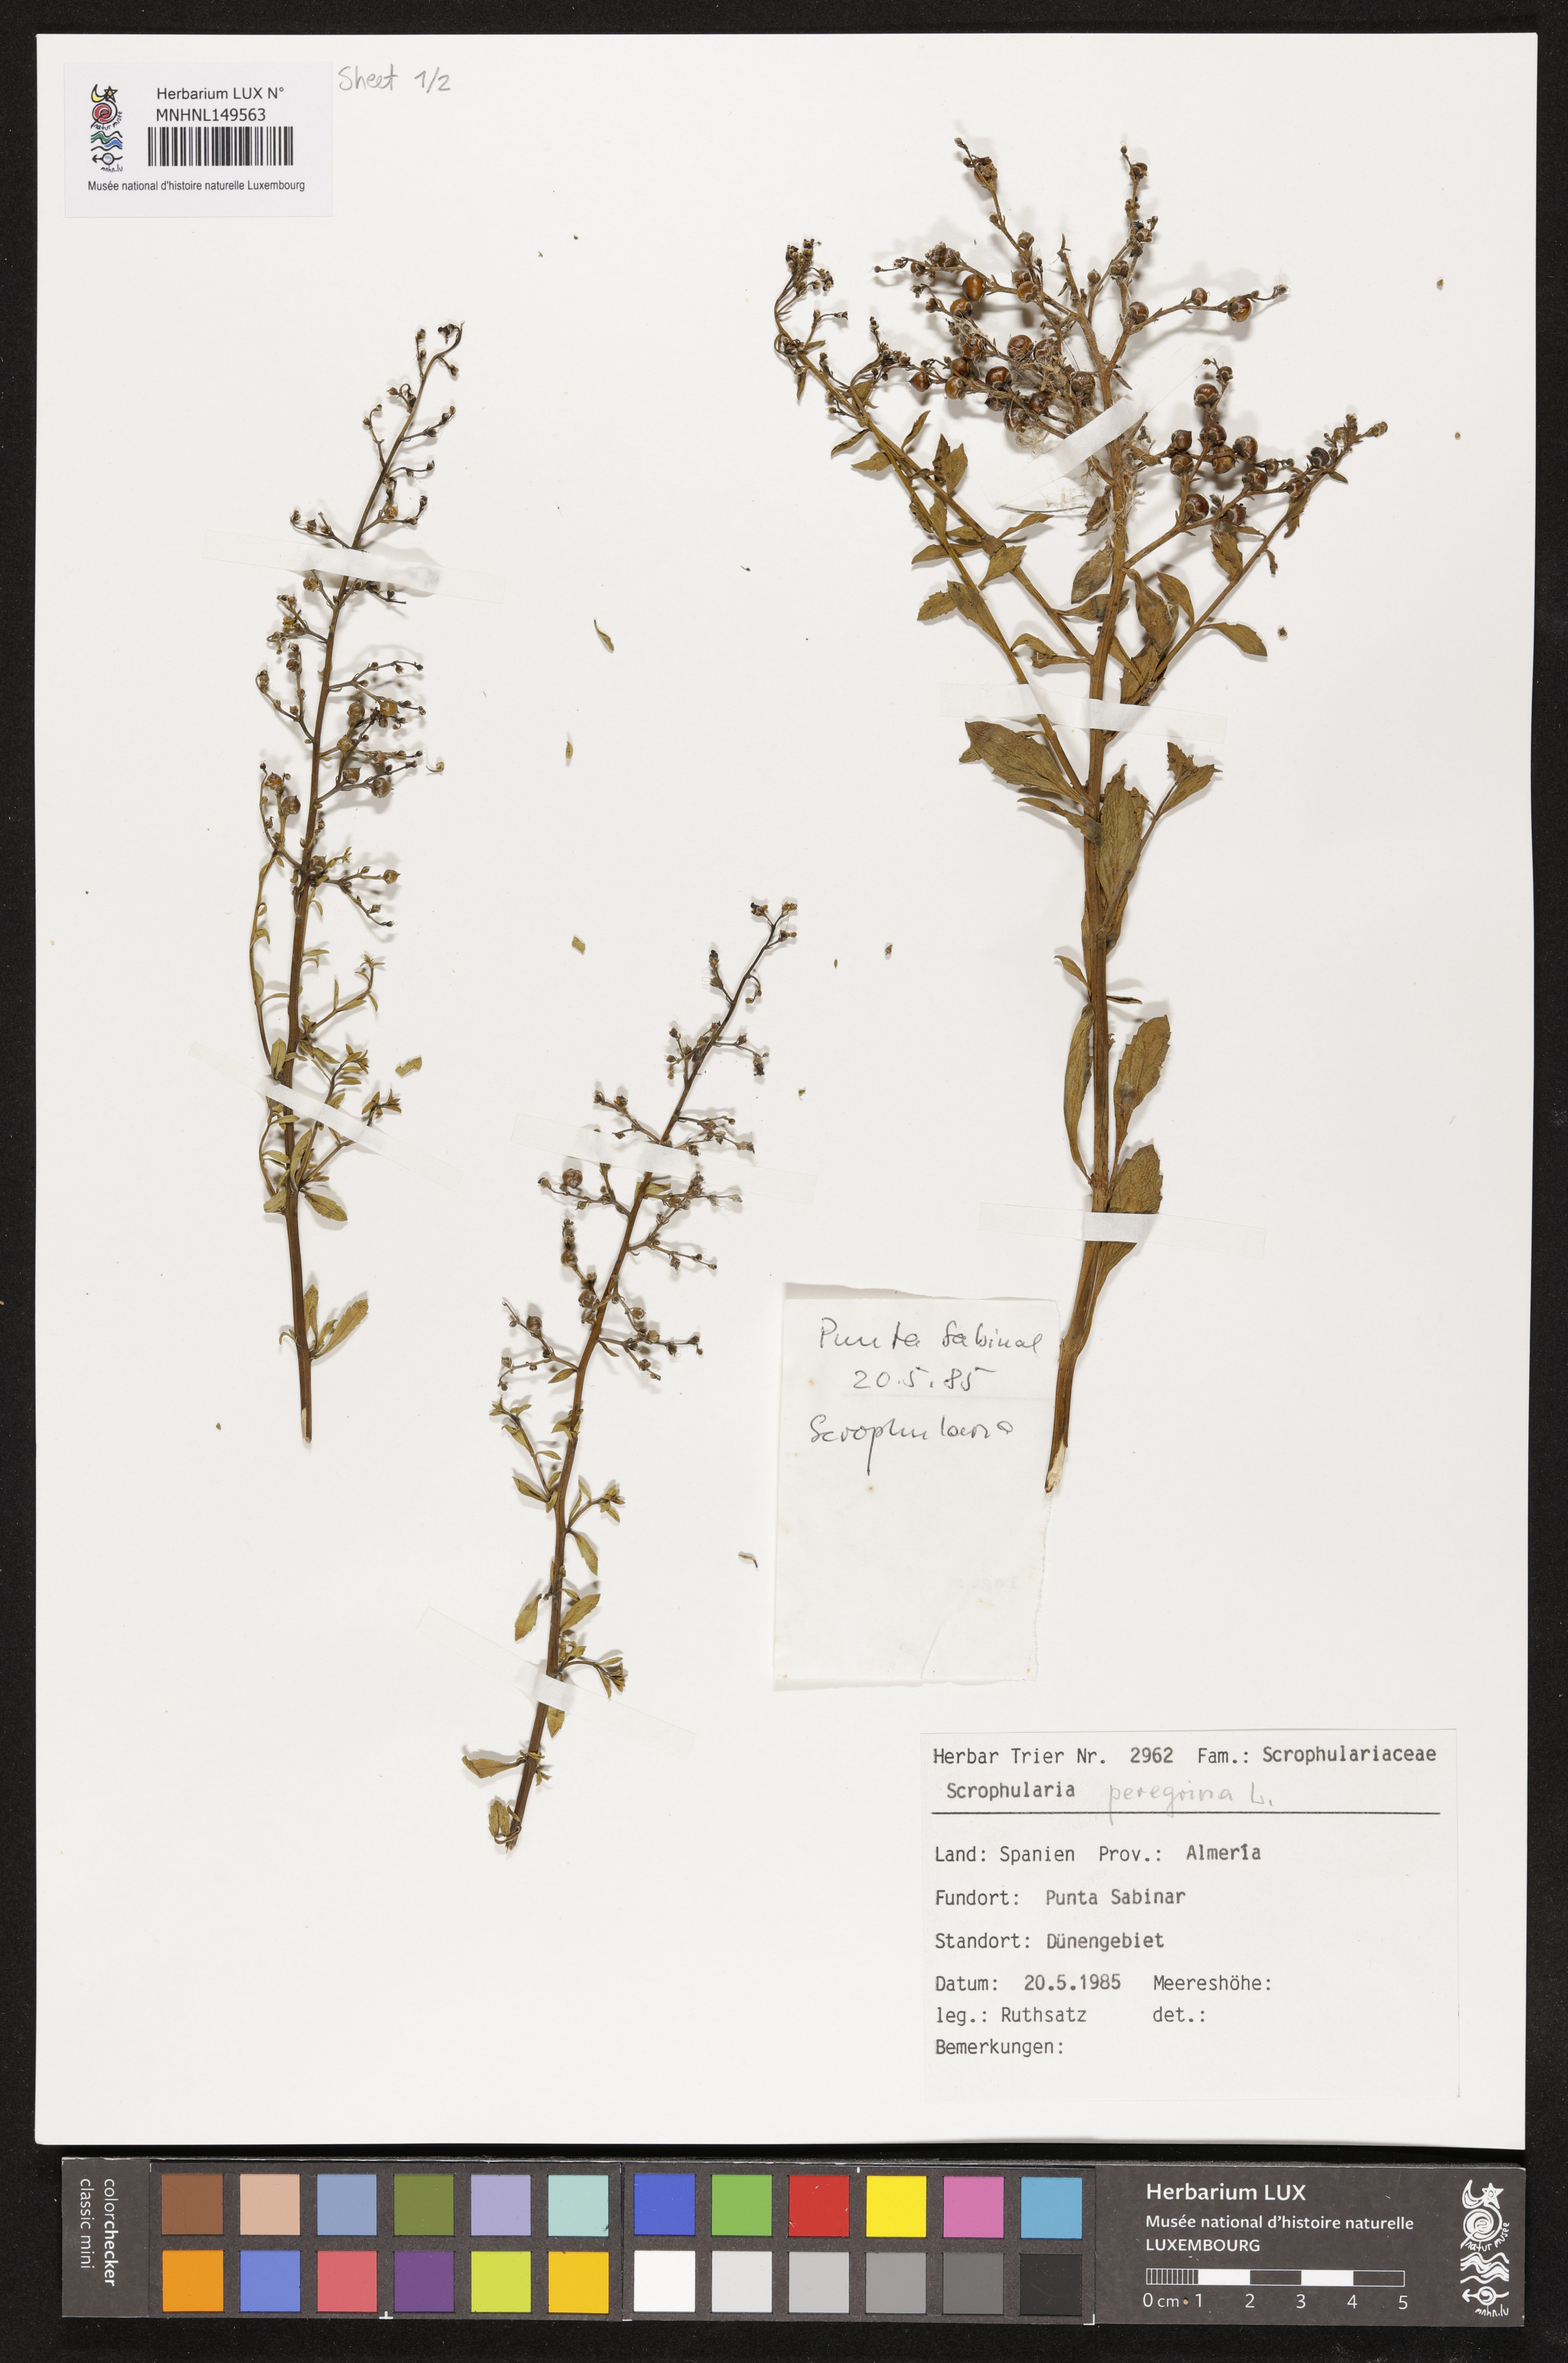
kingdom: Plantae
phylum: Tracheophyta
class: Magnoliopsida
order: Lamiales
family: Scrophulariaceae
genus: Scrophularia
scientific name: Scrophularia peregrina
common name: Mediterranean figwort
